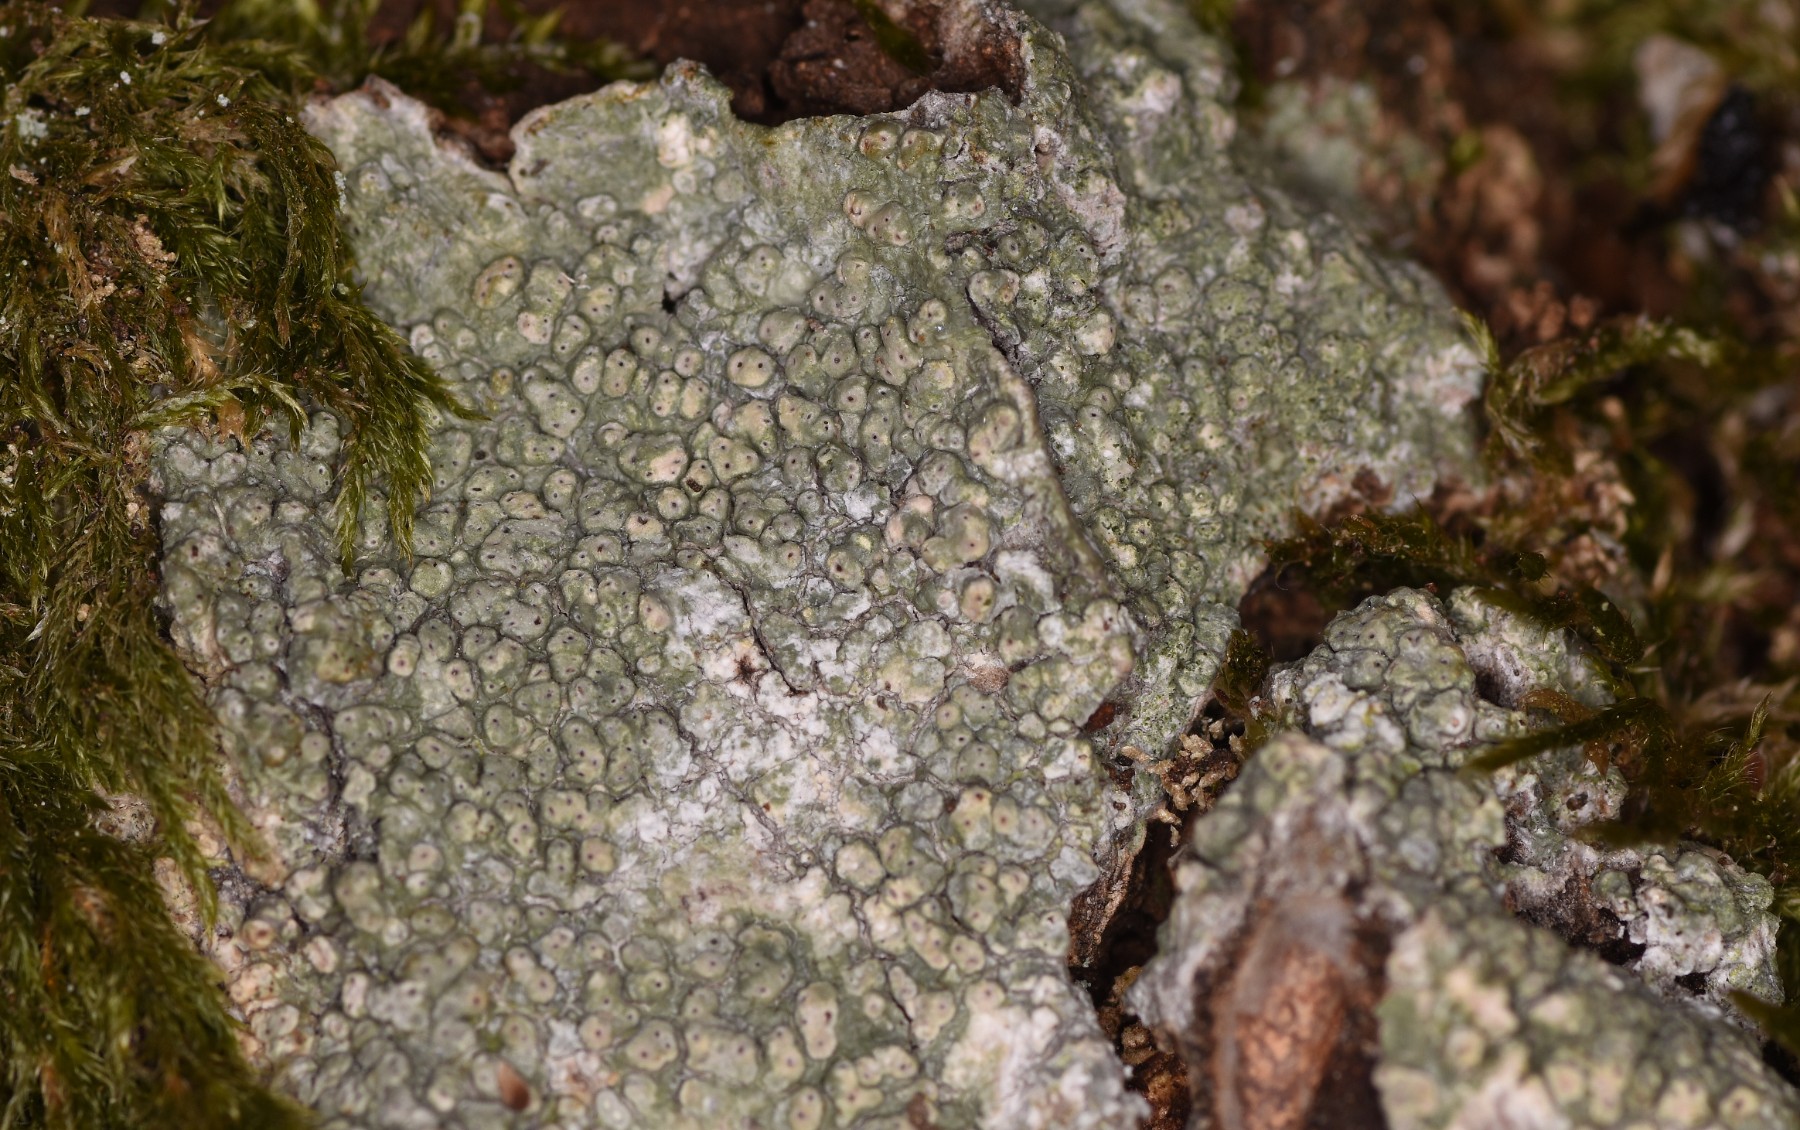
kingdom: Fungi
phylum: Ascomycota
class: Lecanoromycetes
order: Pertusariales
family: Pertusariaceae
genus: Pertusaria
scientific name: Pertusaria pertusa
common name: almindelig prikvortelav
